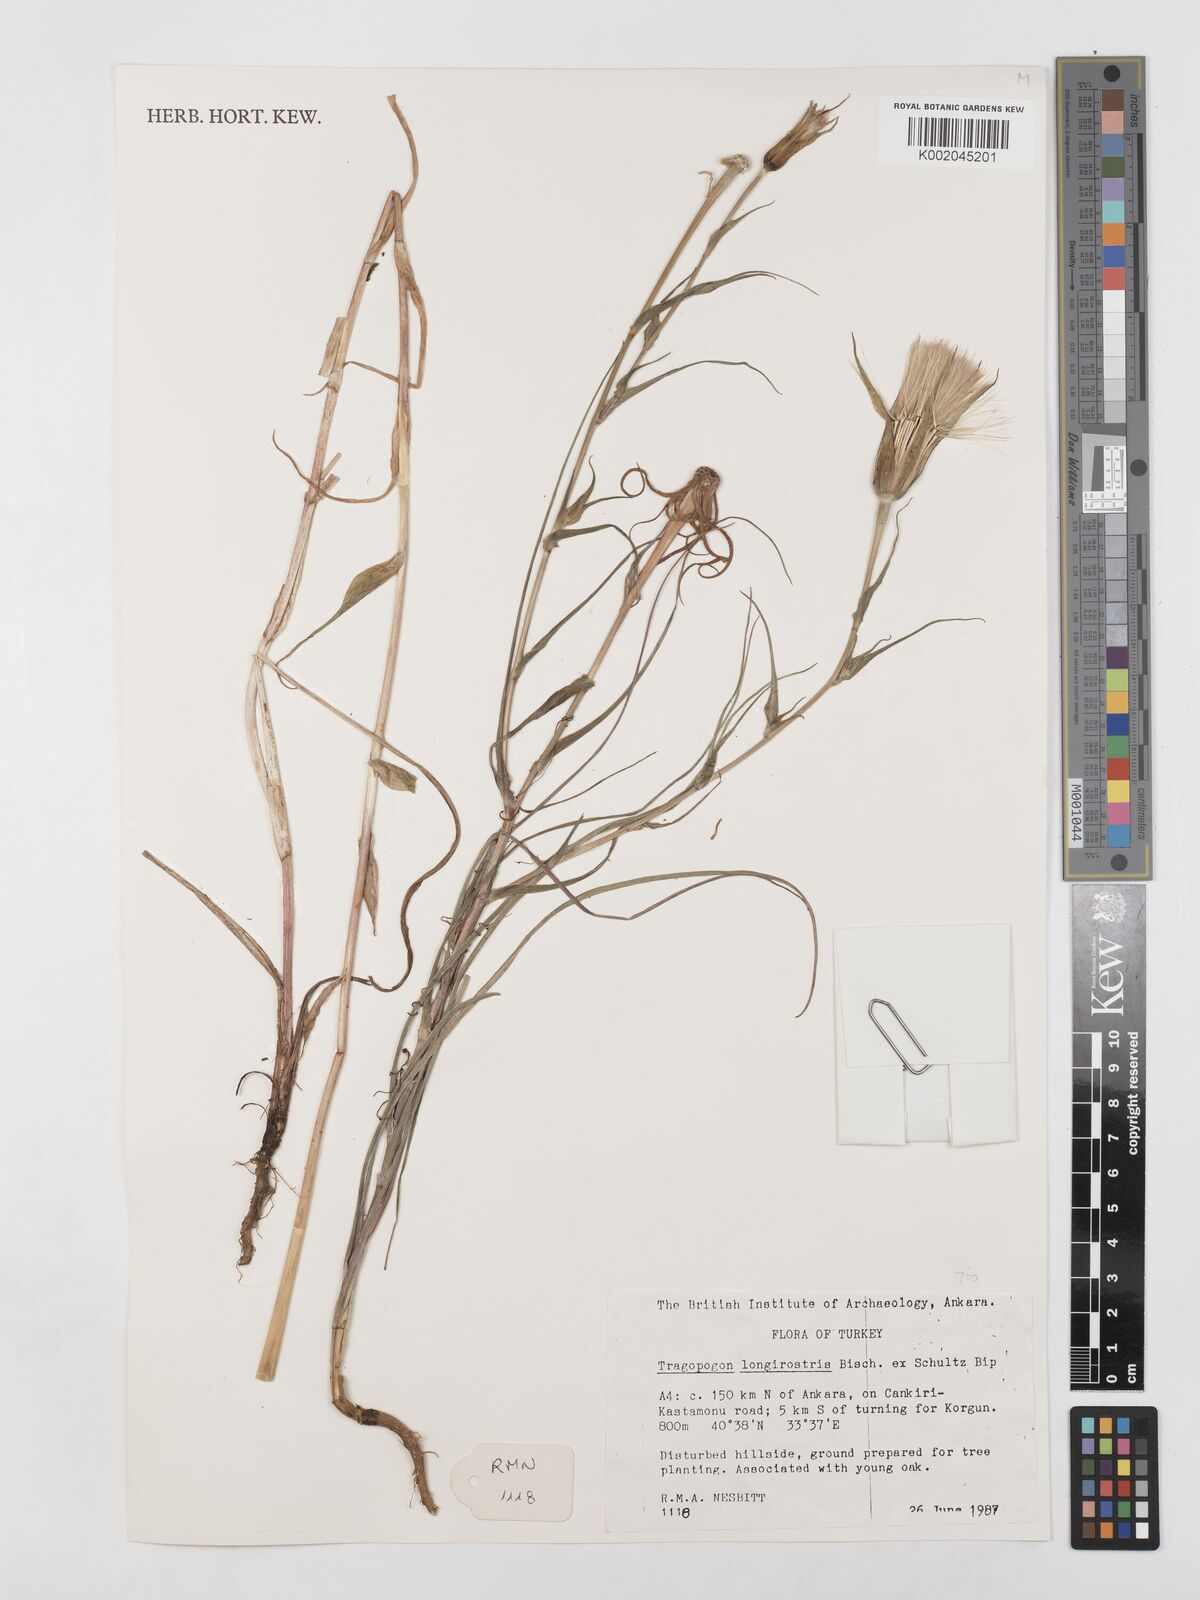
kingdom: Plantae
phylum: Tracheophyta
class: Magnoliopsida
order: Asterales
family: Asteraceae
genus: Tragopogon
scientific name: Tragopogon coelesyriacus
